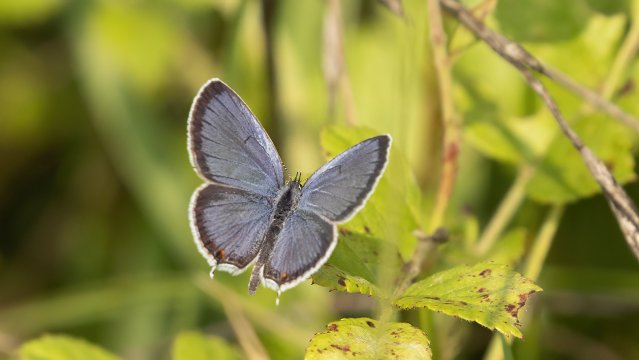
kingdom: Animalia
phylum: Arthropoda
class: Insecta
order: Lepidoptera
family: Lycaenidae
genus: Elkalyce
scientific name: Elkalyce comyntas
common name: Eastern Tailed-Blue
